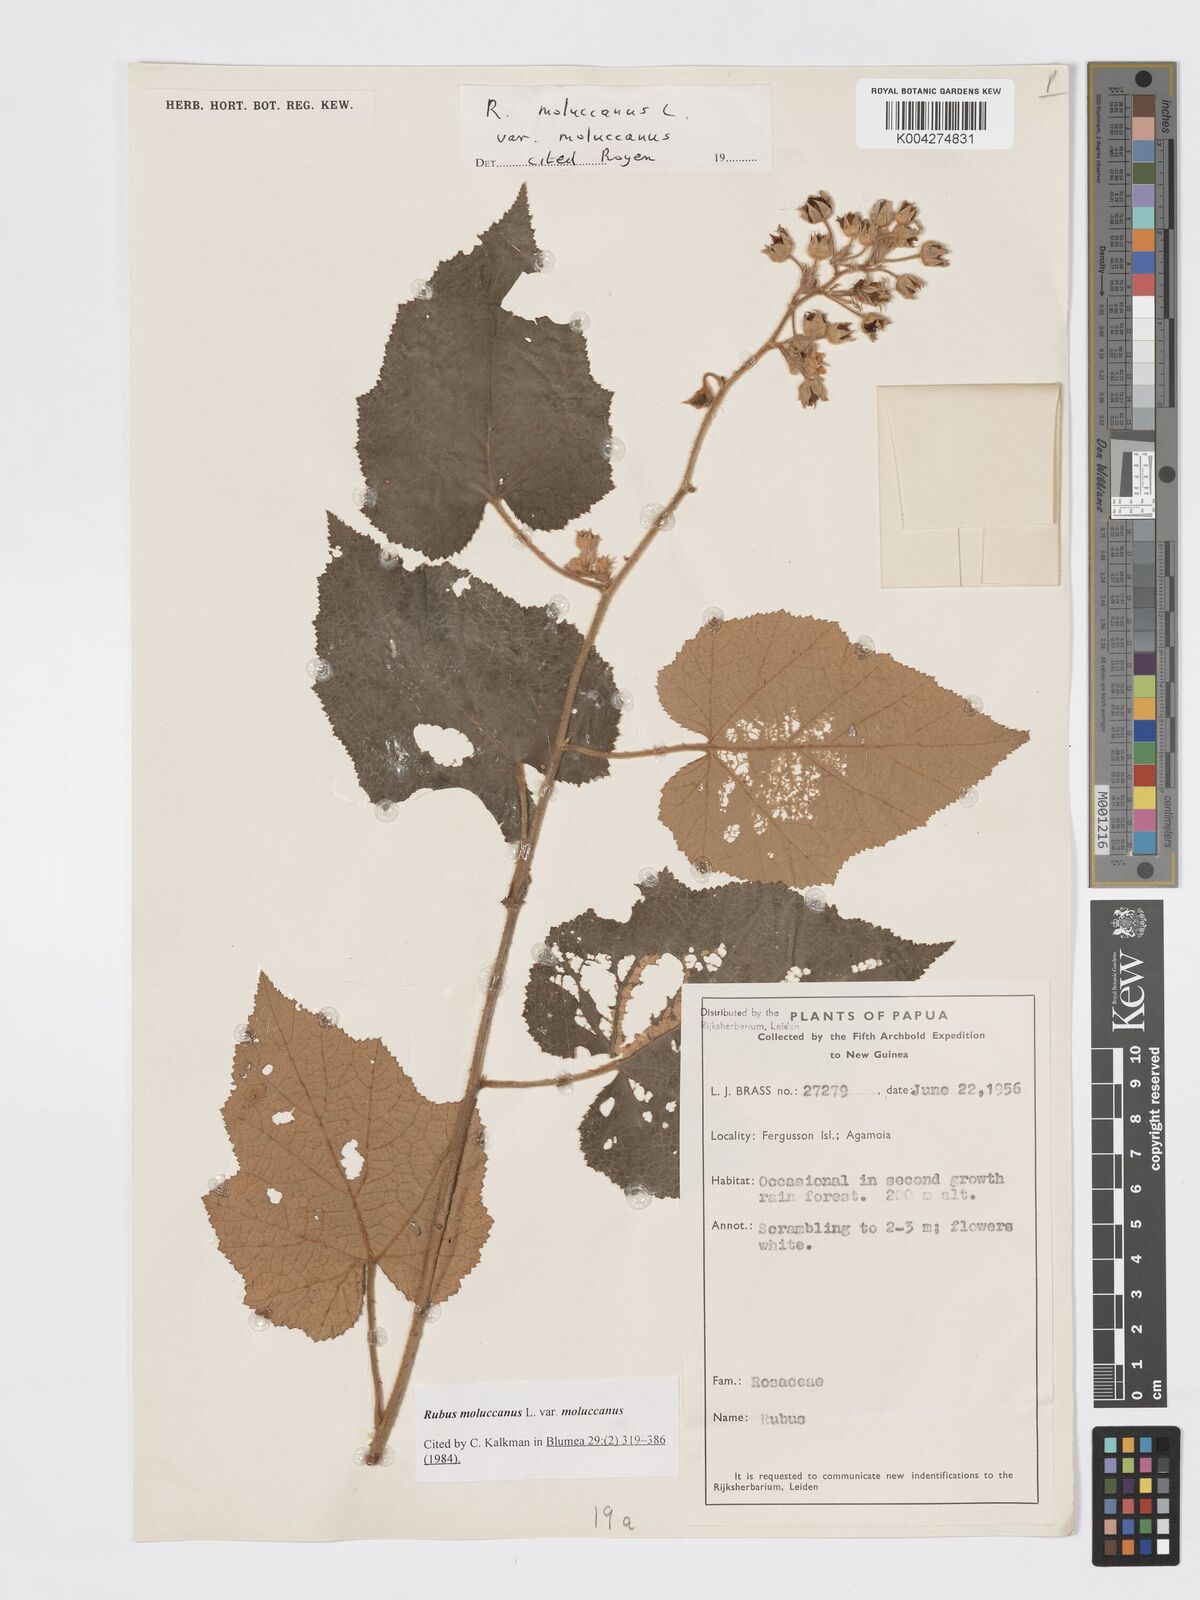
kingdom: Plantae
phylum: Tracheophyta
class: Magnoliopsida
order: Rosales
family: Rosaceae
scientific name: Rosaceae
